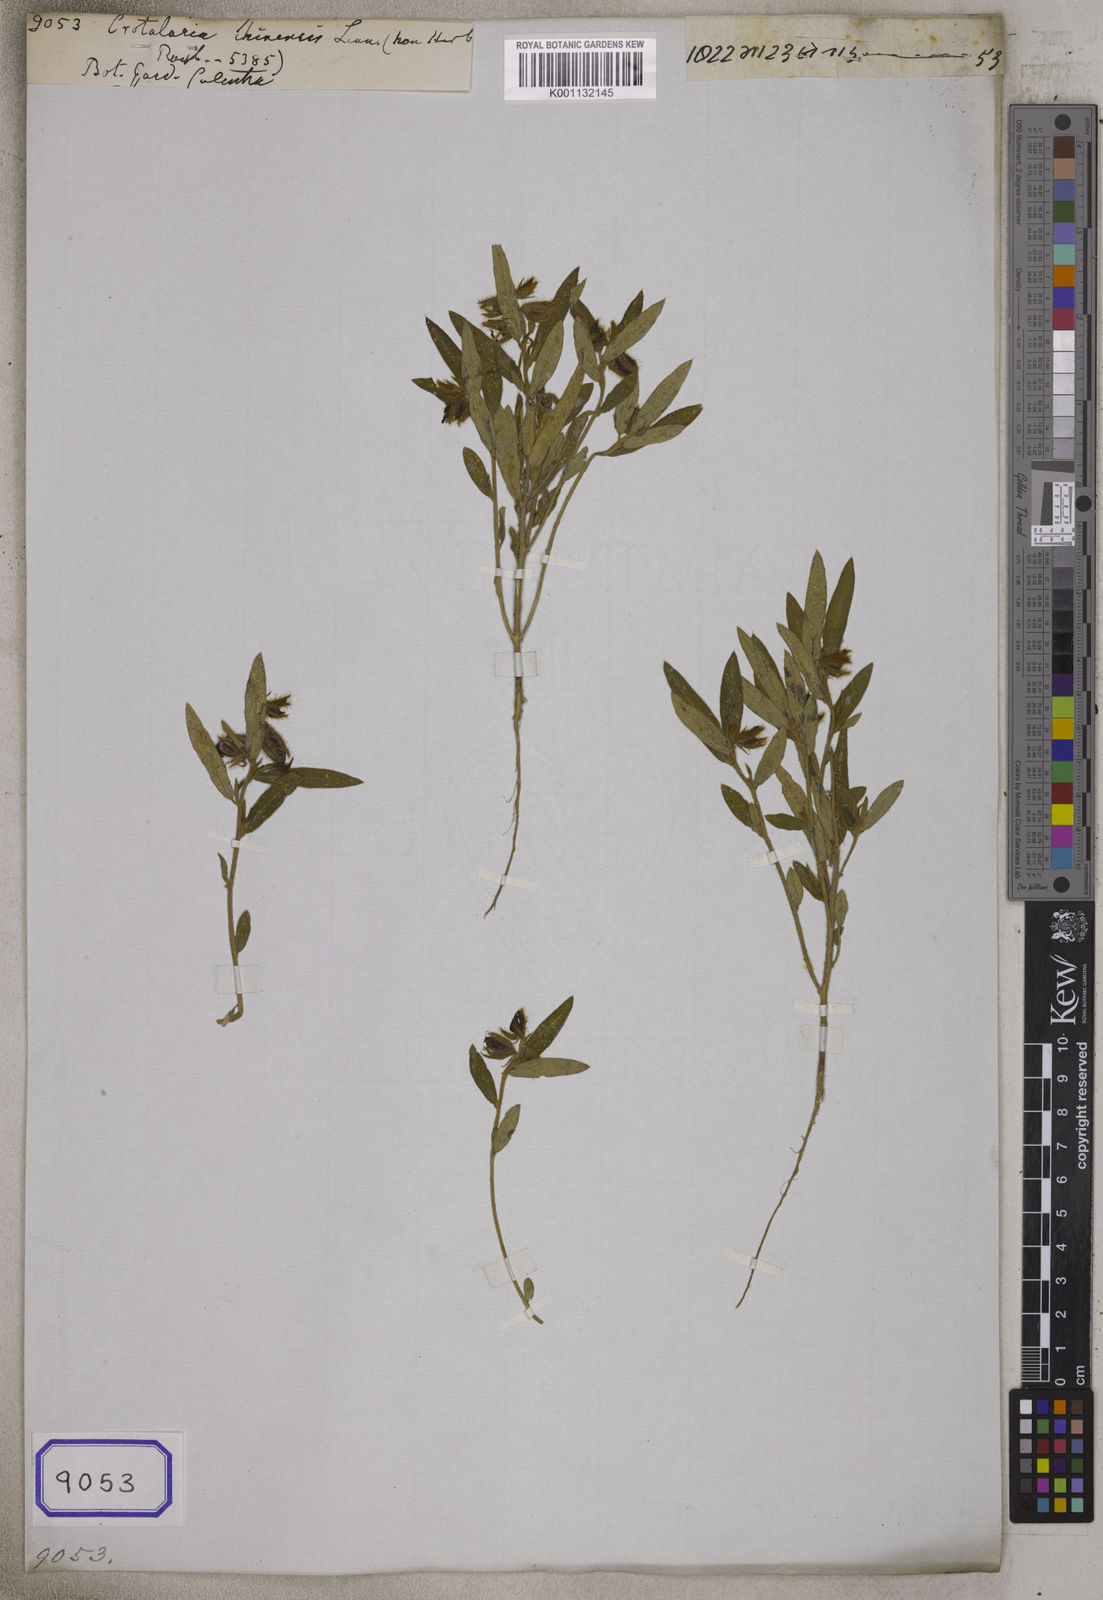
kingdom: Plantae
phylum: Tracheophyta
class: Magnoliopsida
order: Fabales
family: Fabaceae
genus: Crotalaria
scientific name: Crotalaria chinensis
